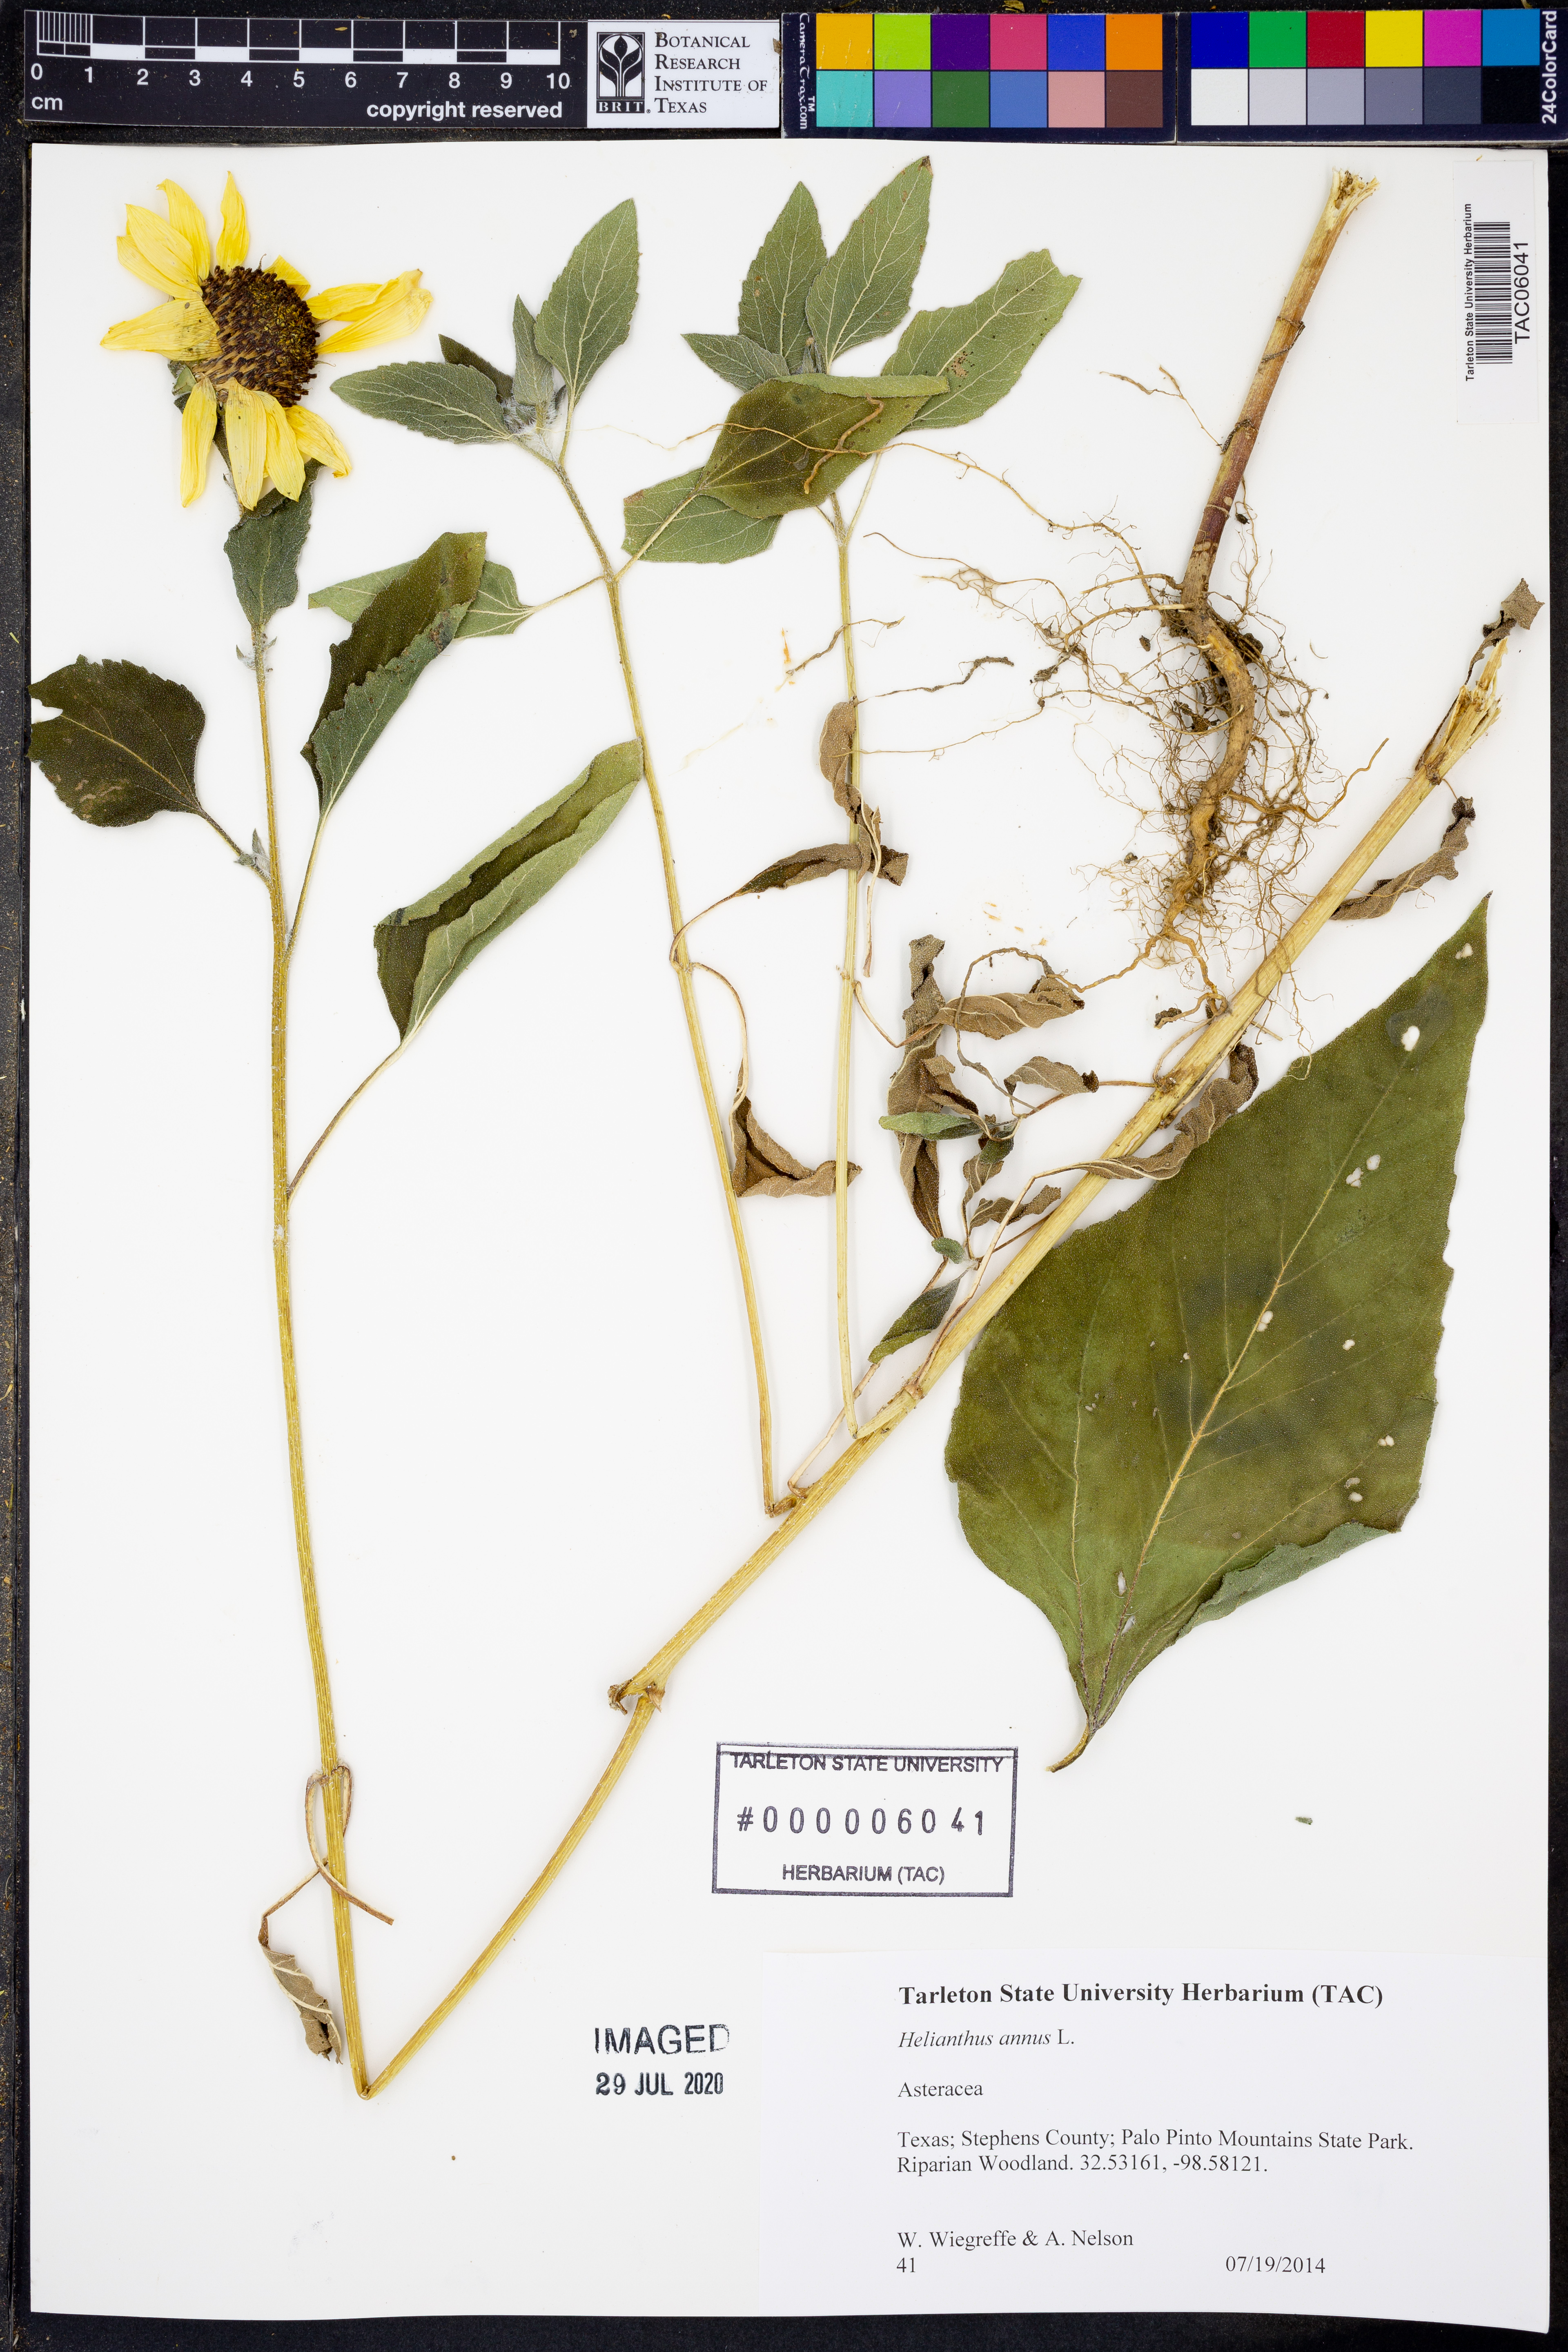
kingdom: Plantae
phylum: Tracheophyta
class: Magnoliopsida
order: Asterales
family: Asteraceae
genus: Helianthus
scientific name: Helianthus annuus
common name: Sunflower
